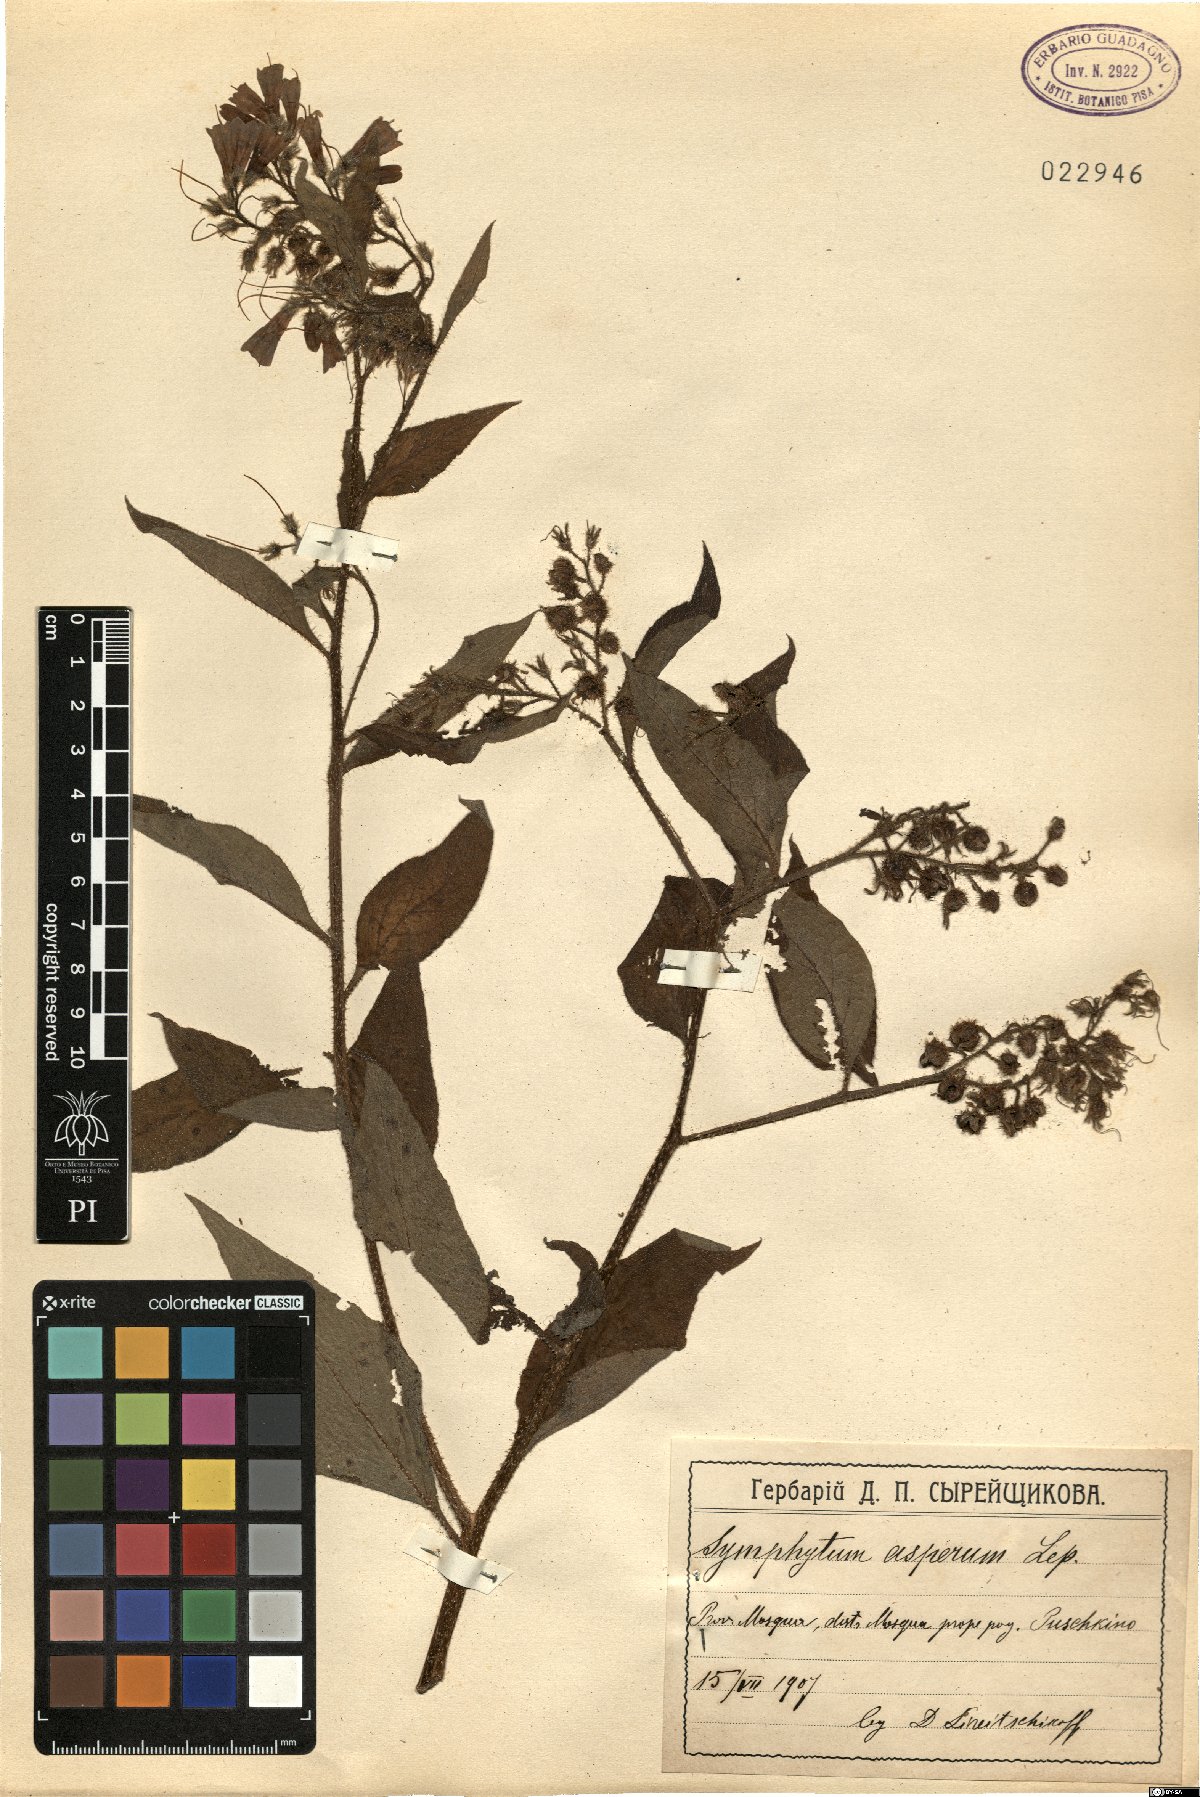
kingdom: Plantae
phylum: Tracheophyta
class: Magnoliopsida
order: Boraginales
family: Boraginaceae
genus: Symphytum
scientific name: Symphytum asperum
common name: Prickly comfrey
